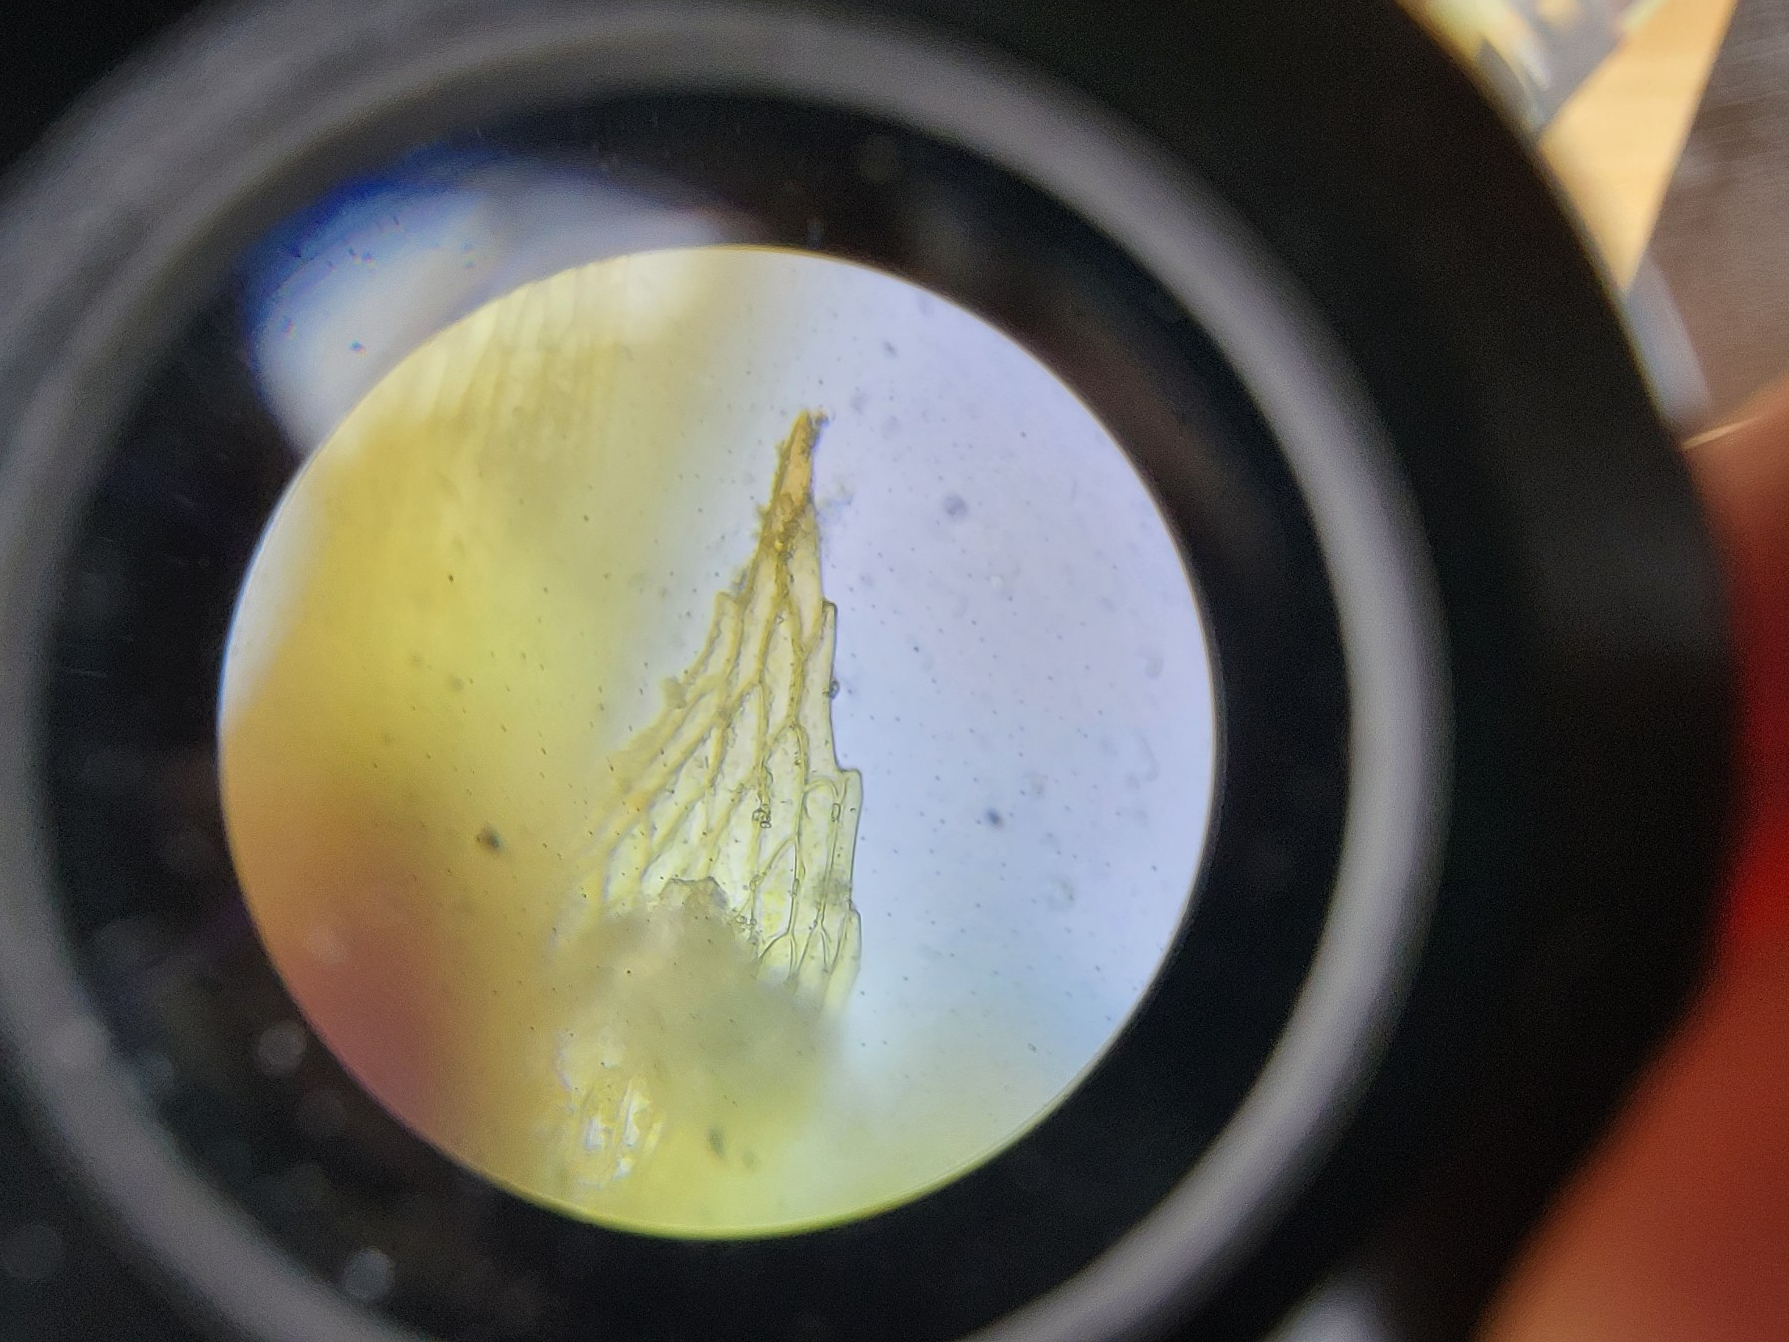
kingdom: Plantae
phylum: Bryophyta
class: Bryopsida
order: Funariales
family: Funariaceae
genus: Physcomitrium
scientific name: Physcomitrium patens
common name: Bulet muddermos
